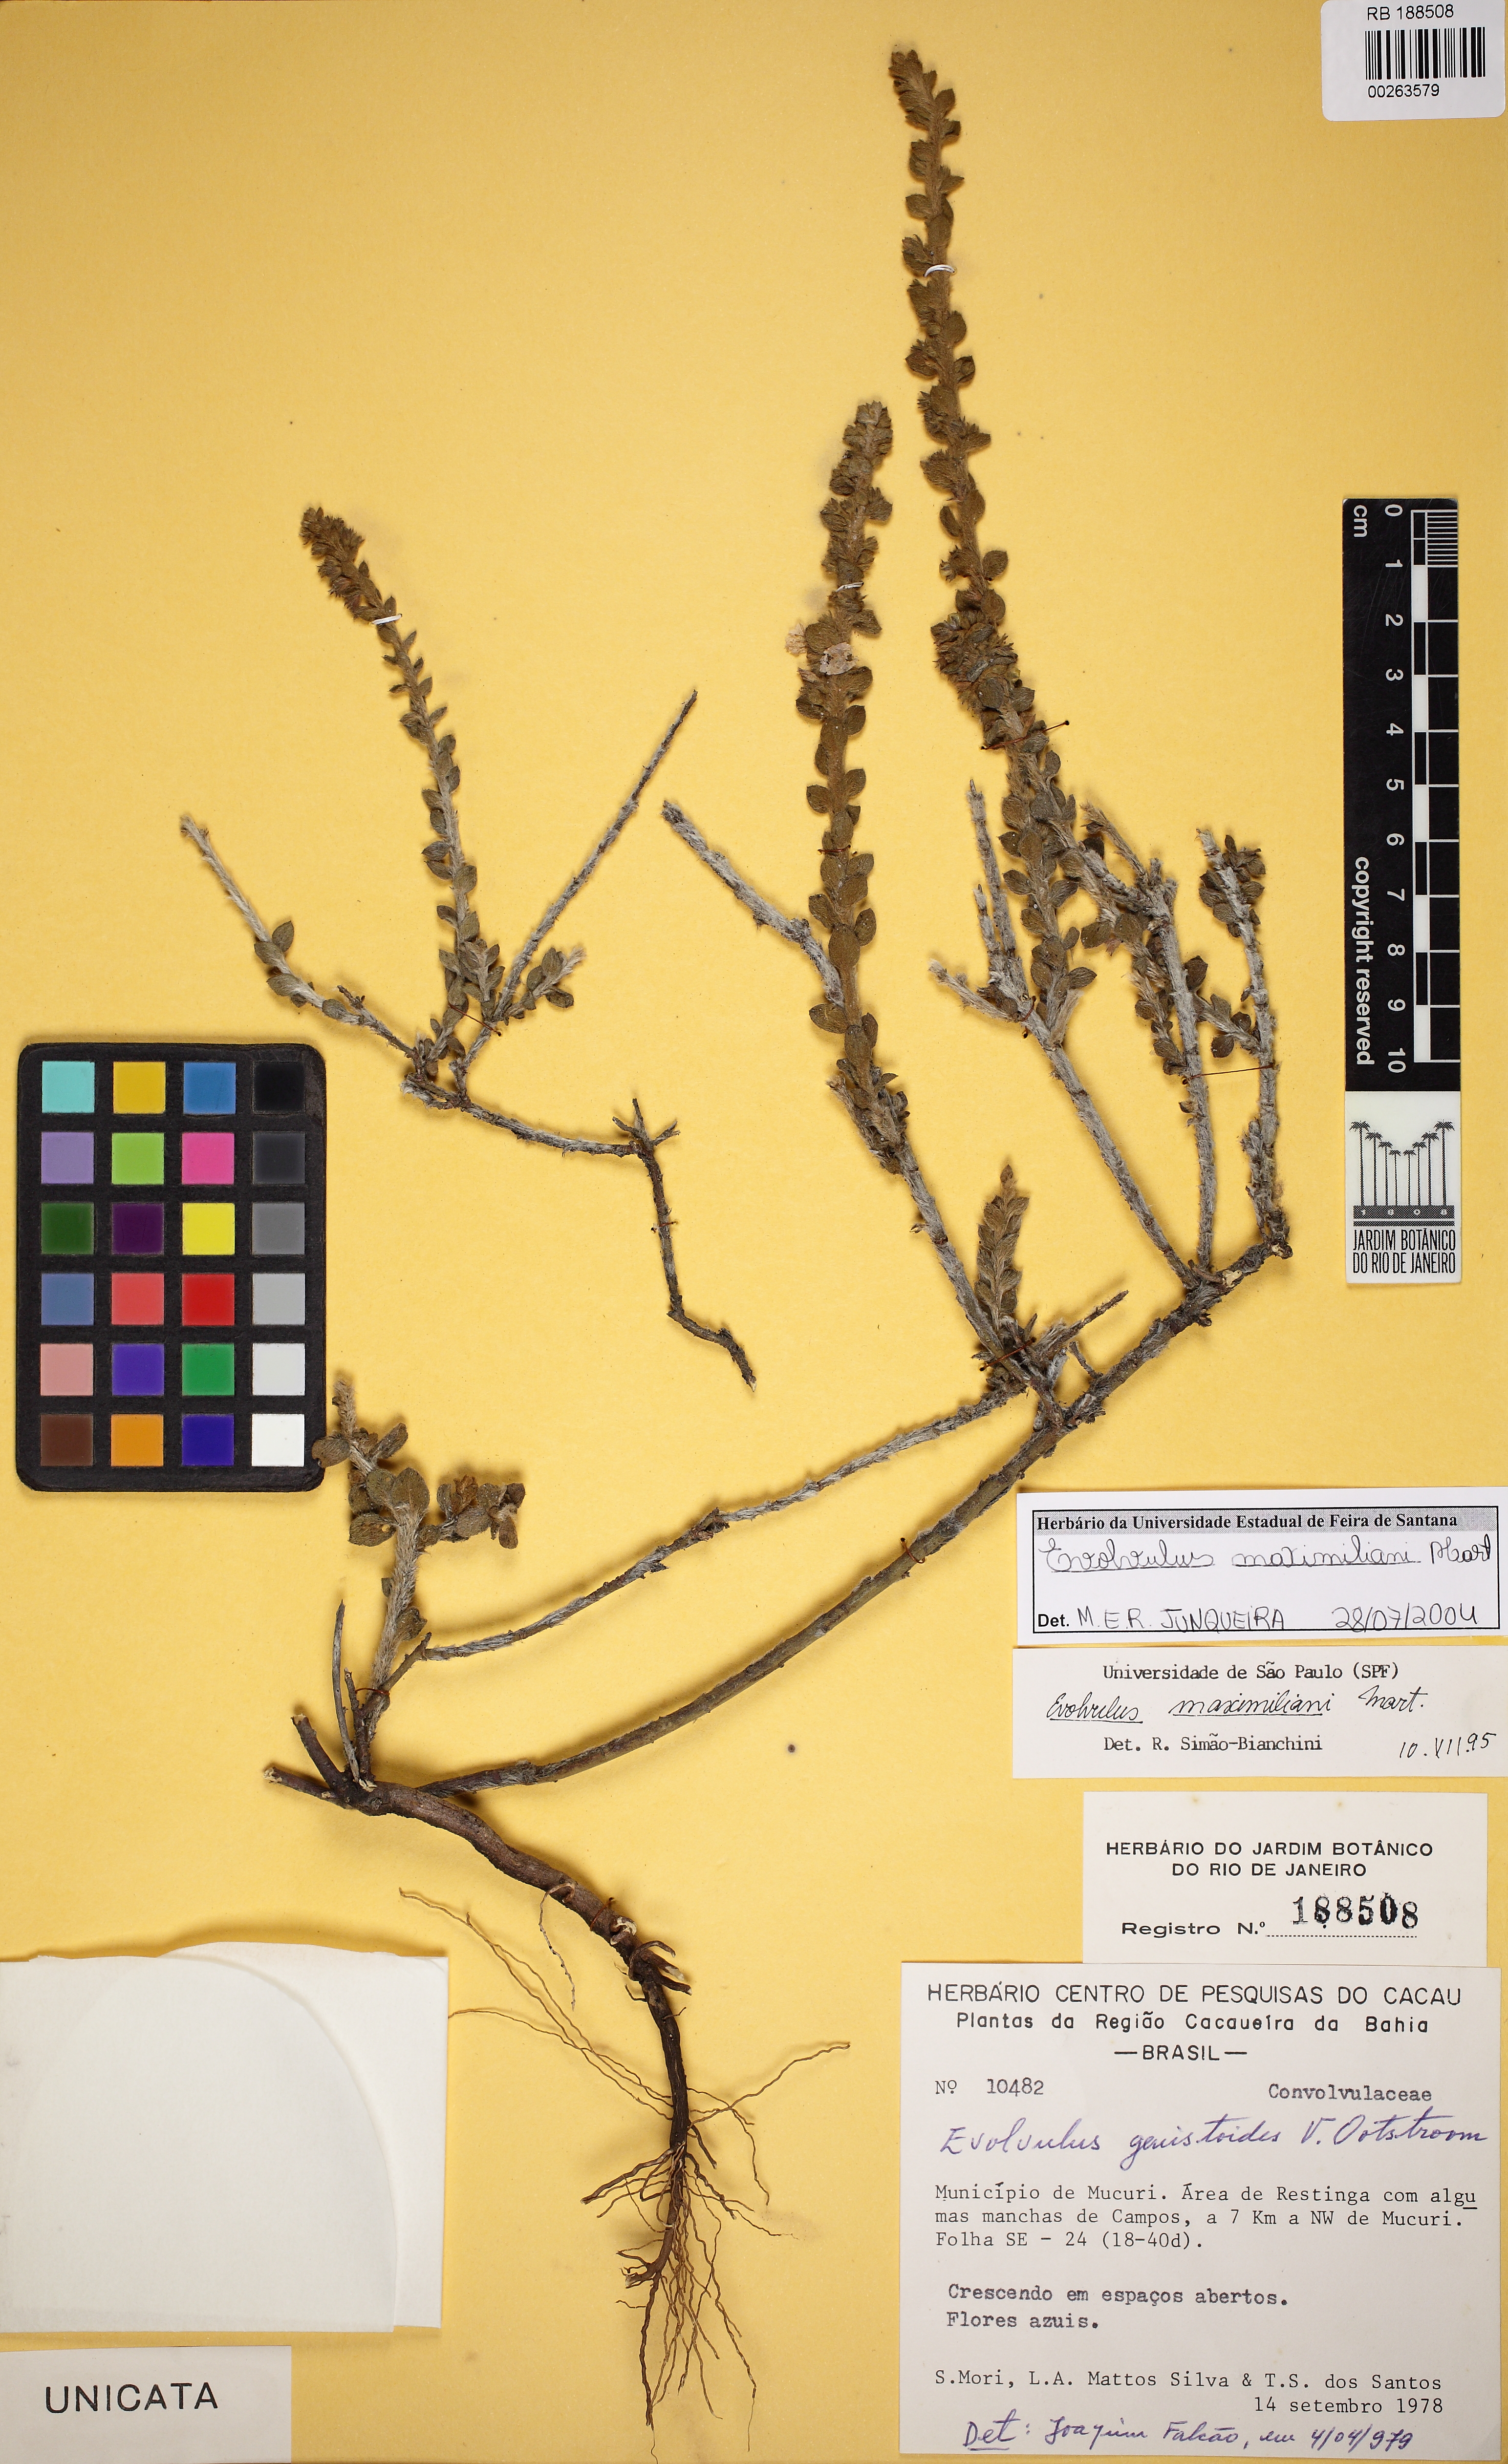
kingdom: Plantae
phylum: Tracheophyta
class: Magnoliopsida
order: Solanales
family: Convolvulaceae
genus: Evolvulus
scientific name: Evolvulus maximiliani
